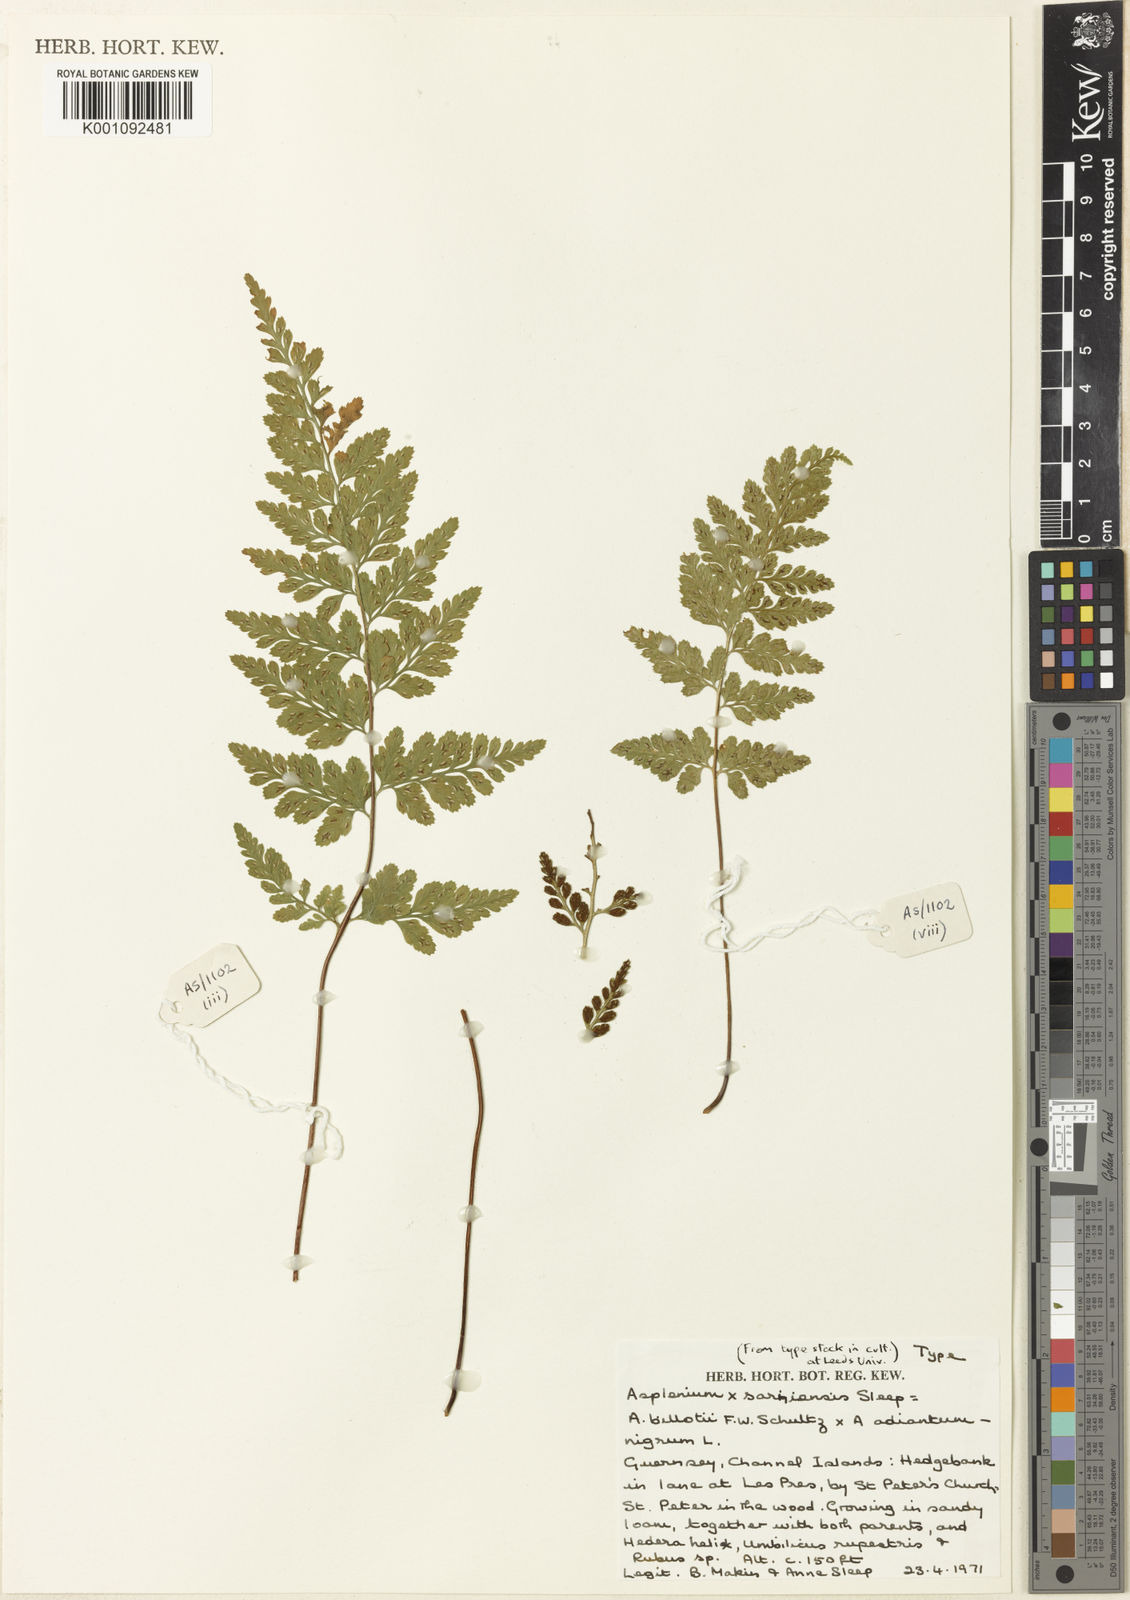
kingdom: Plantae
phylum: Tracheophyta
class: Polypodiopsida
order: Polypodiales
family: Aspleniaceae
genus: Asplenium
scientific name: Asplenium obovatum
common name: Lanceolate spleenwort
